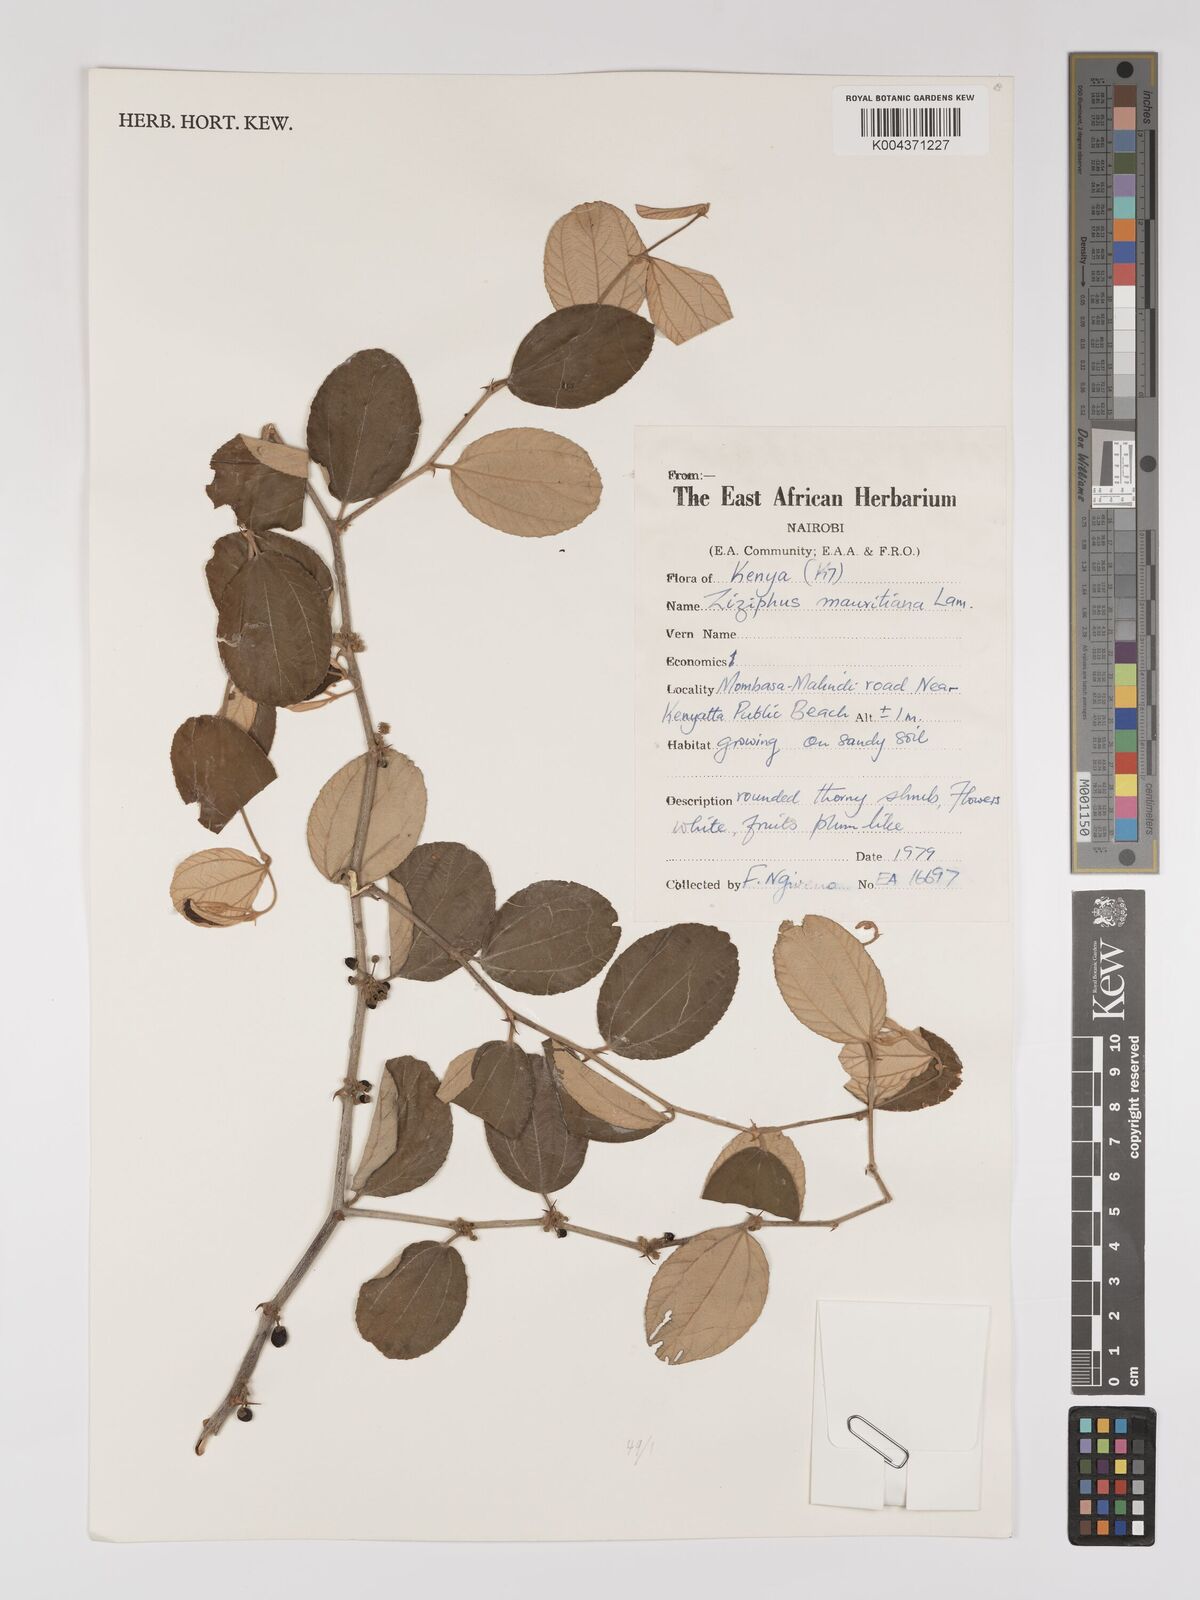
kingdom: Plantae
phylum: Tracheophyta
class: Magnoliopsida
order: Rosales
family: Rhamnaceae
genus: Ziziphus
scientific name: Ziziphus mauritiana
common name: Indian jujube
